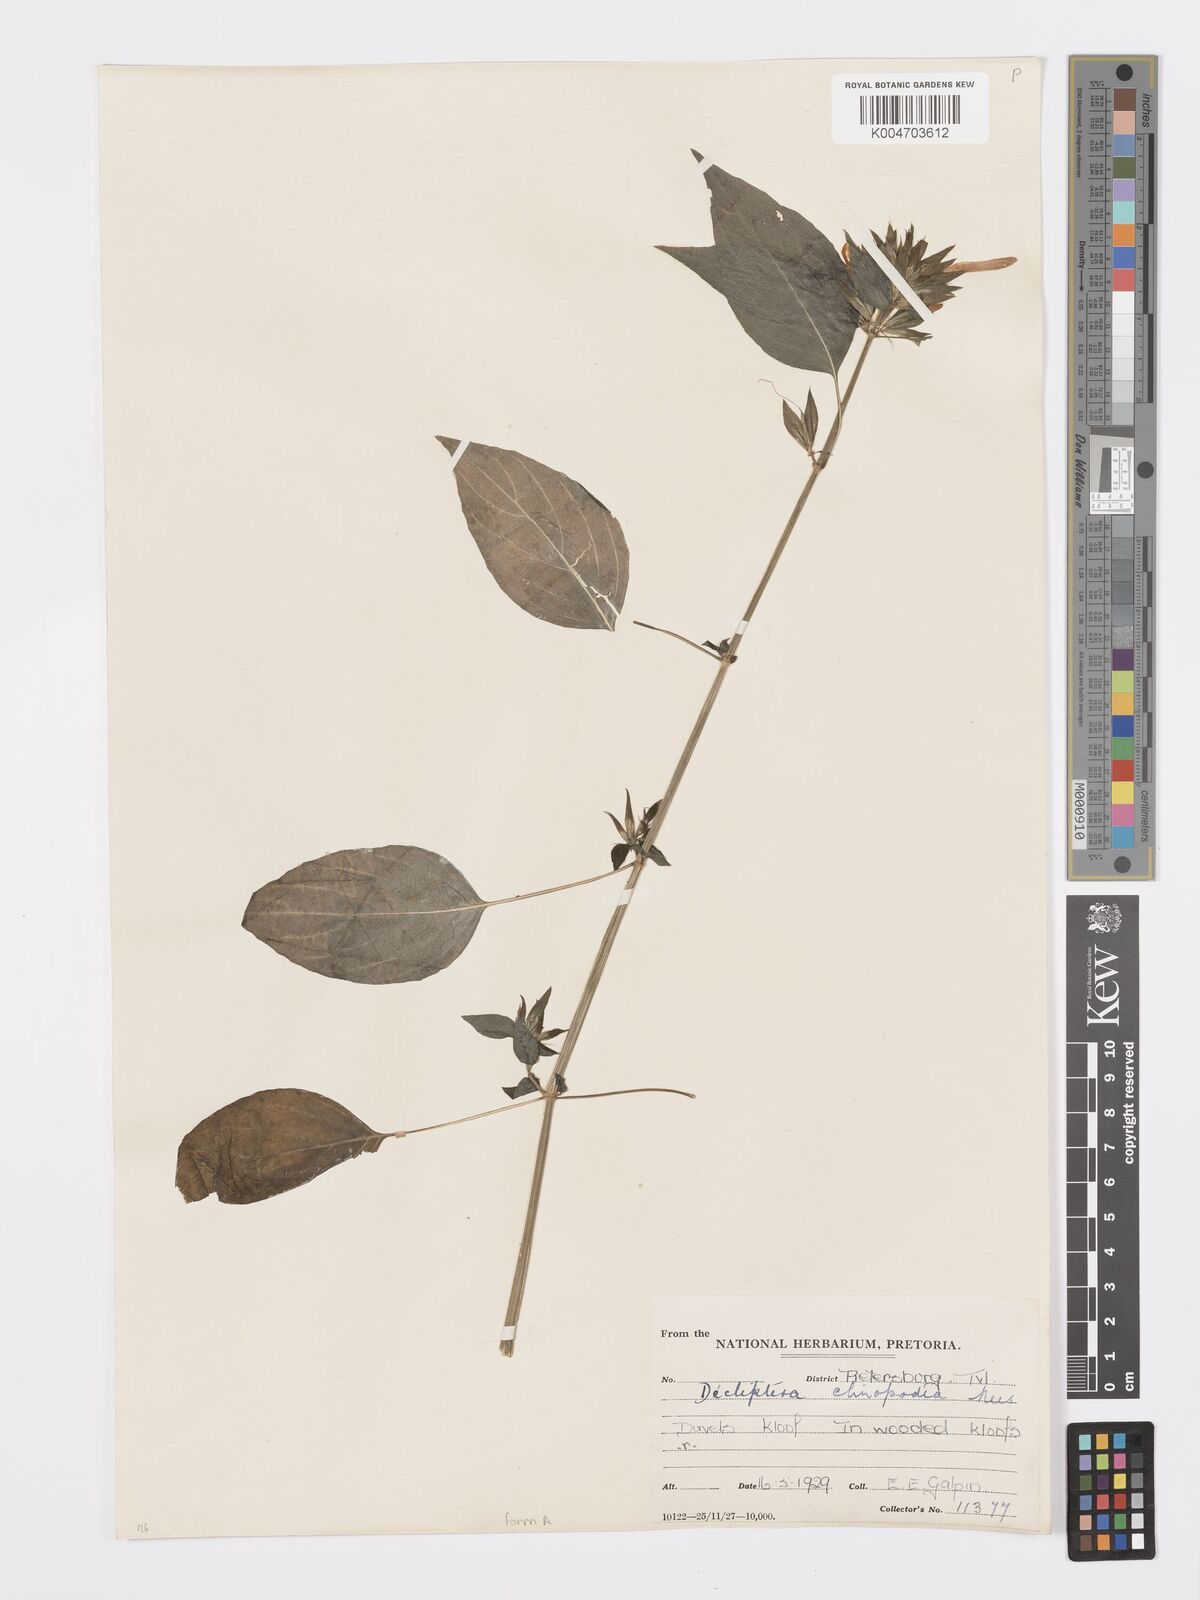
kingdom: Plantae
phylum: Tracheophyta
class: Magnoliopsida
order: Lamiales
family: Acanthaceae
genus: Dicliptera
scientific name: Dicliptera clinopodia
